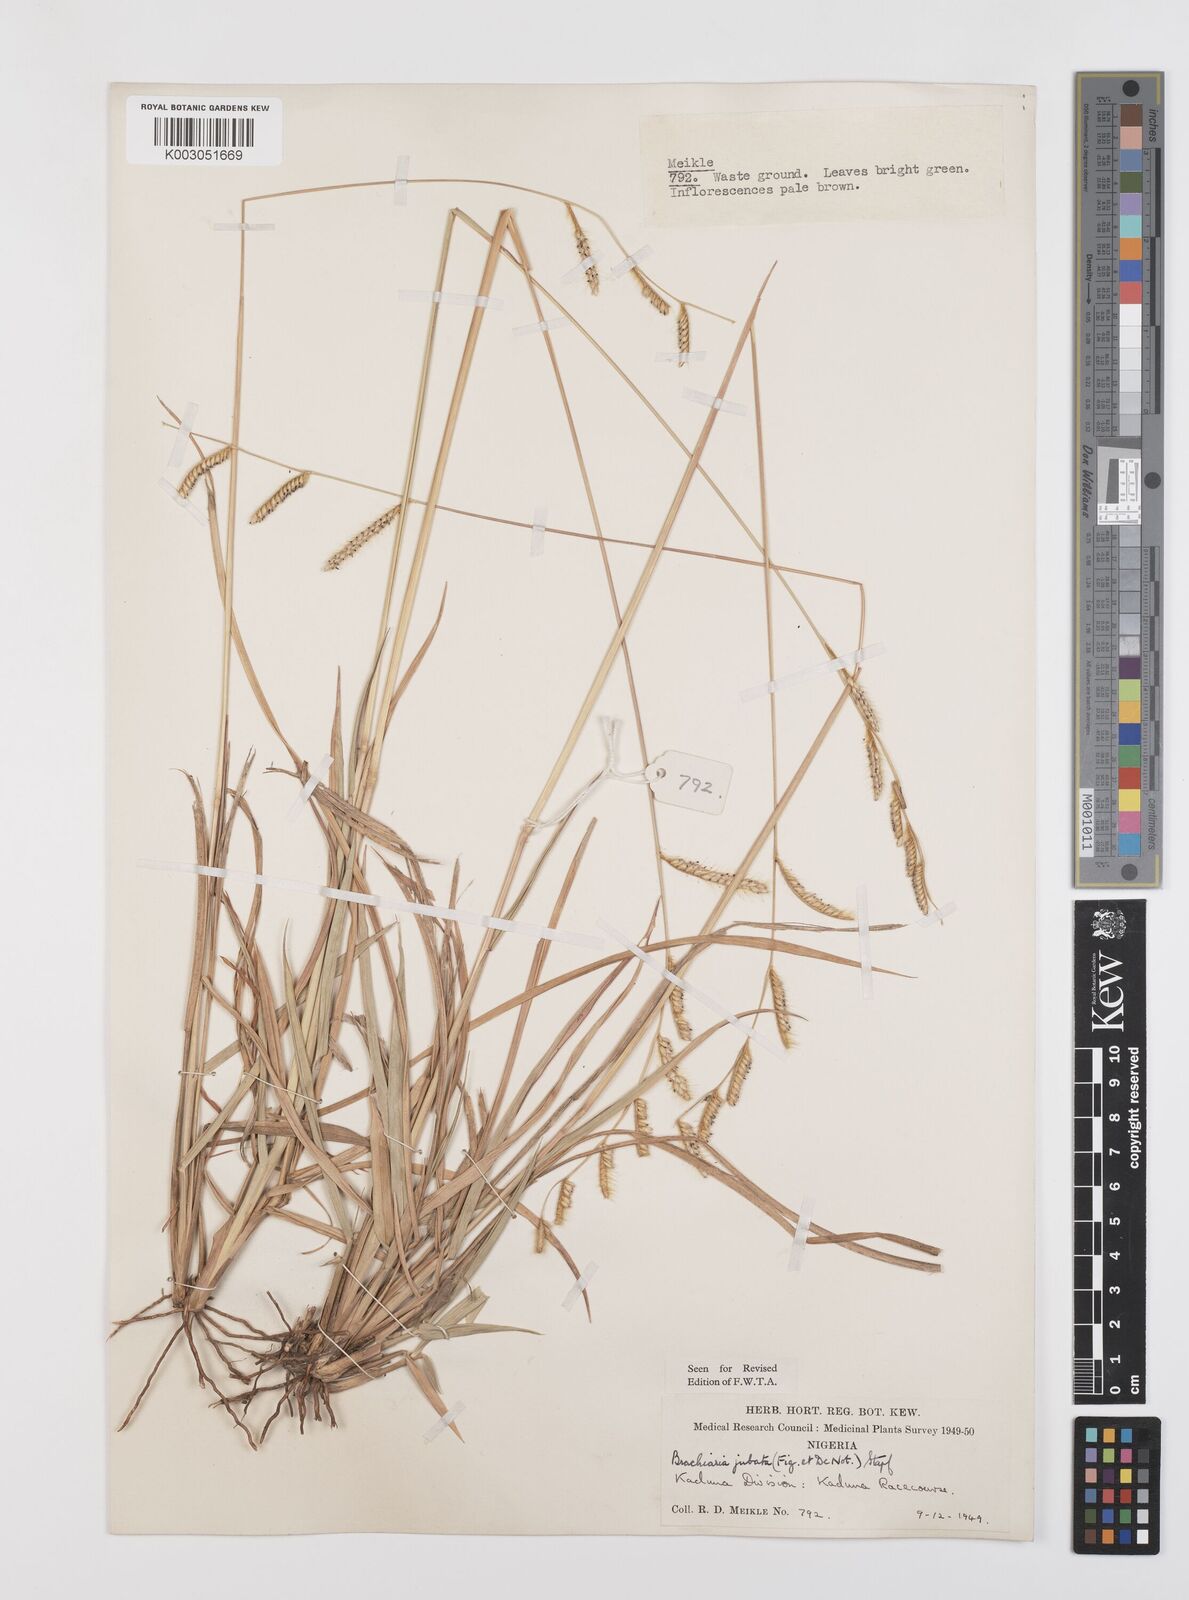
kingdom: Plantae
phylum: Tracheophyta
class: Liliopsida
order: Poales
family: Poaceae
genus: Urochloa
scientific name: Urochloa jubata
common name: Buffalograss
